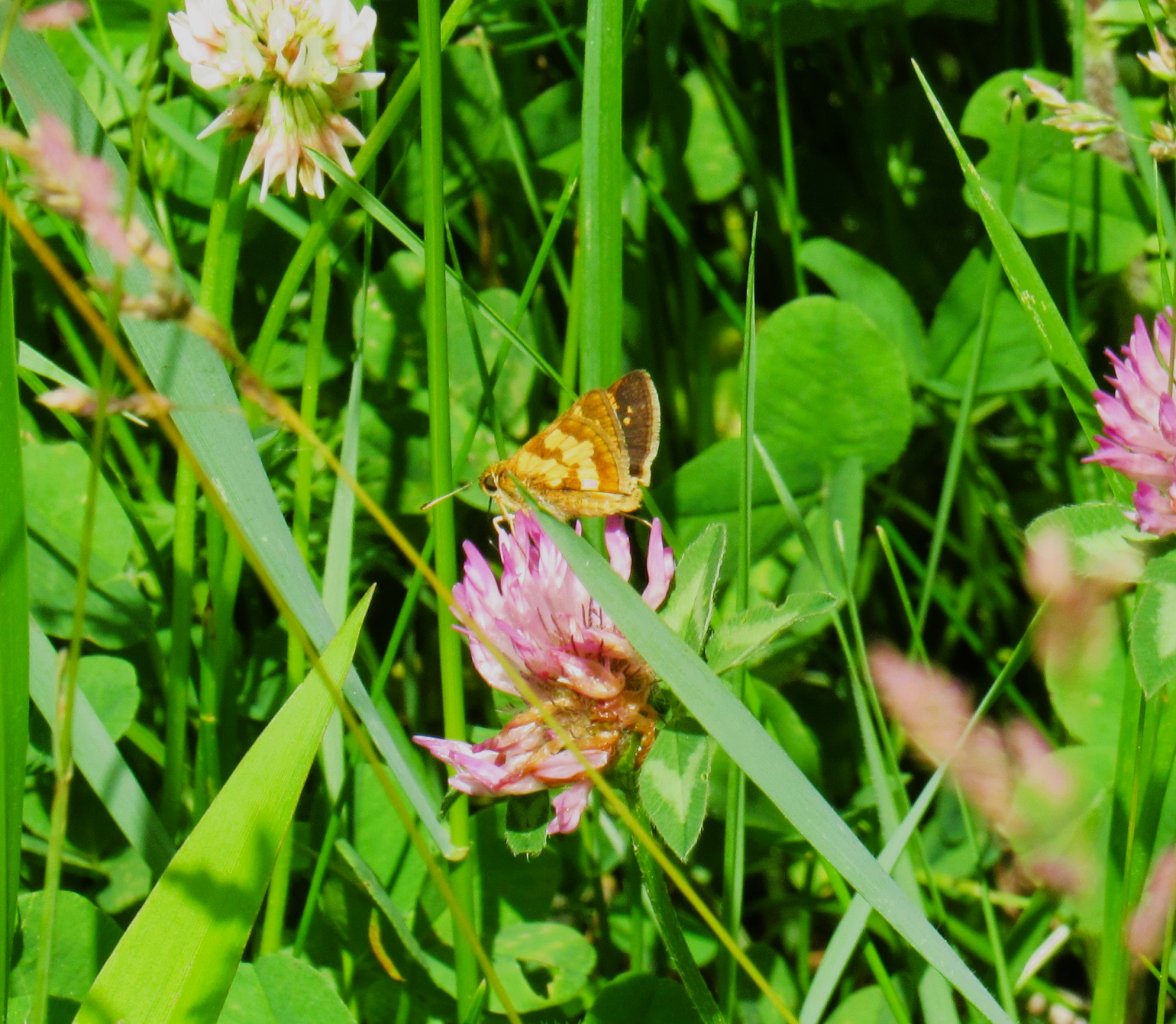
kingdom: Animalia
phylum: Arthropoda
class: Insecta
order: Lepidoptera
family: Hesperiidae
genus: Polites
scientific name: Polites coras
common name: Peck's Skipper
